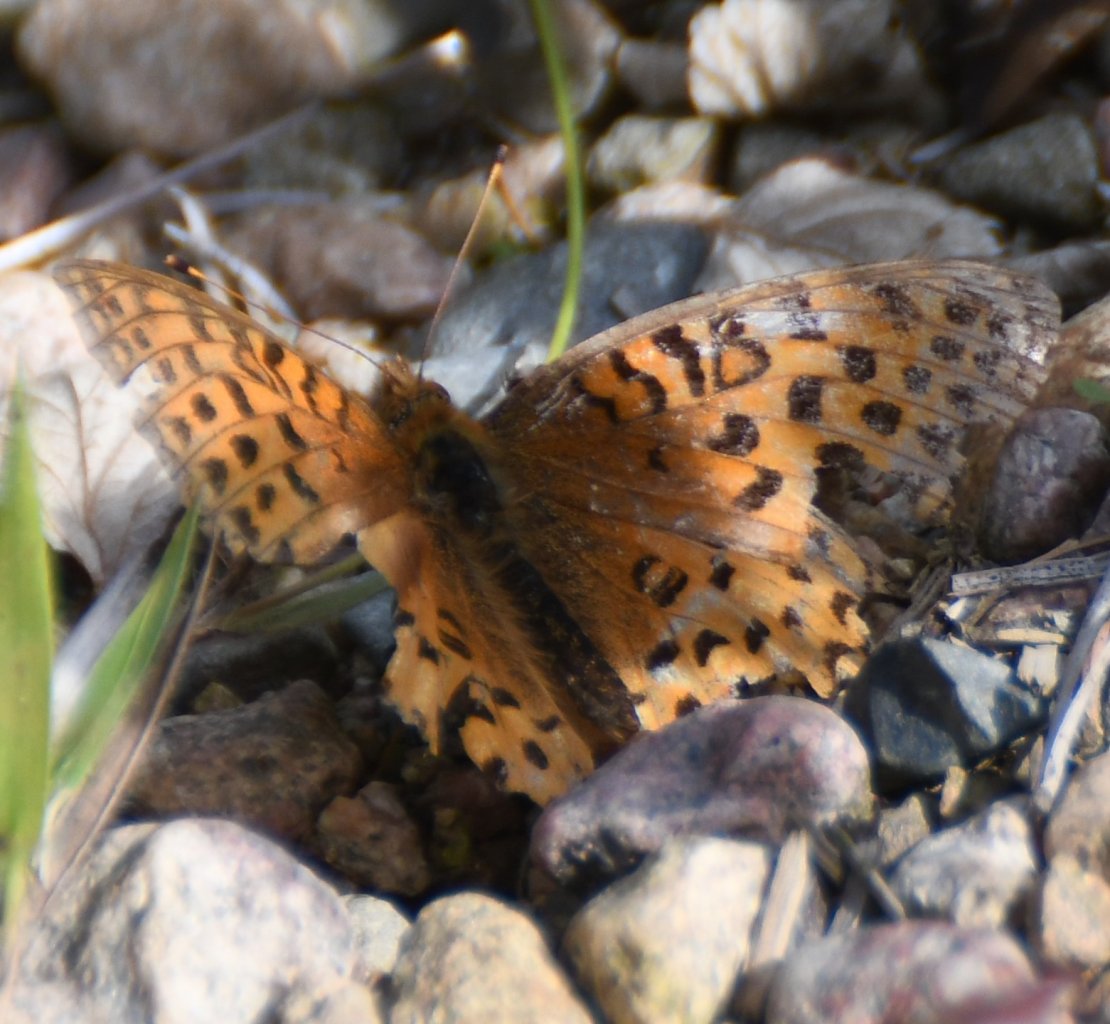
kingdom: Animalia
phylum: Arthropoda
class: Insecta
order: Lepidoptera
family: Nymphalidae
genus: Speyeria
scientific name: Speyeria aphrodite
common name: Aphrodite Fritillary
